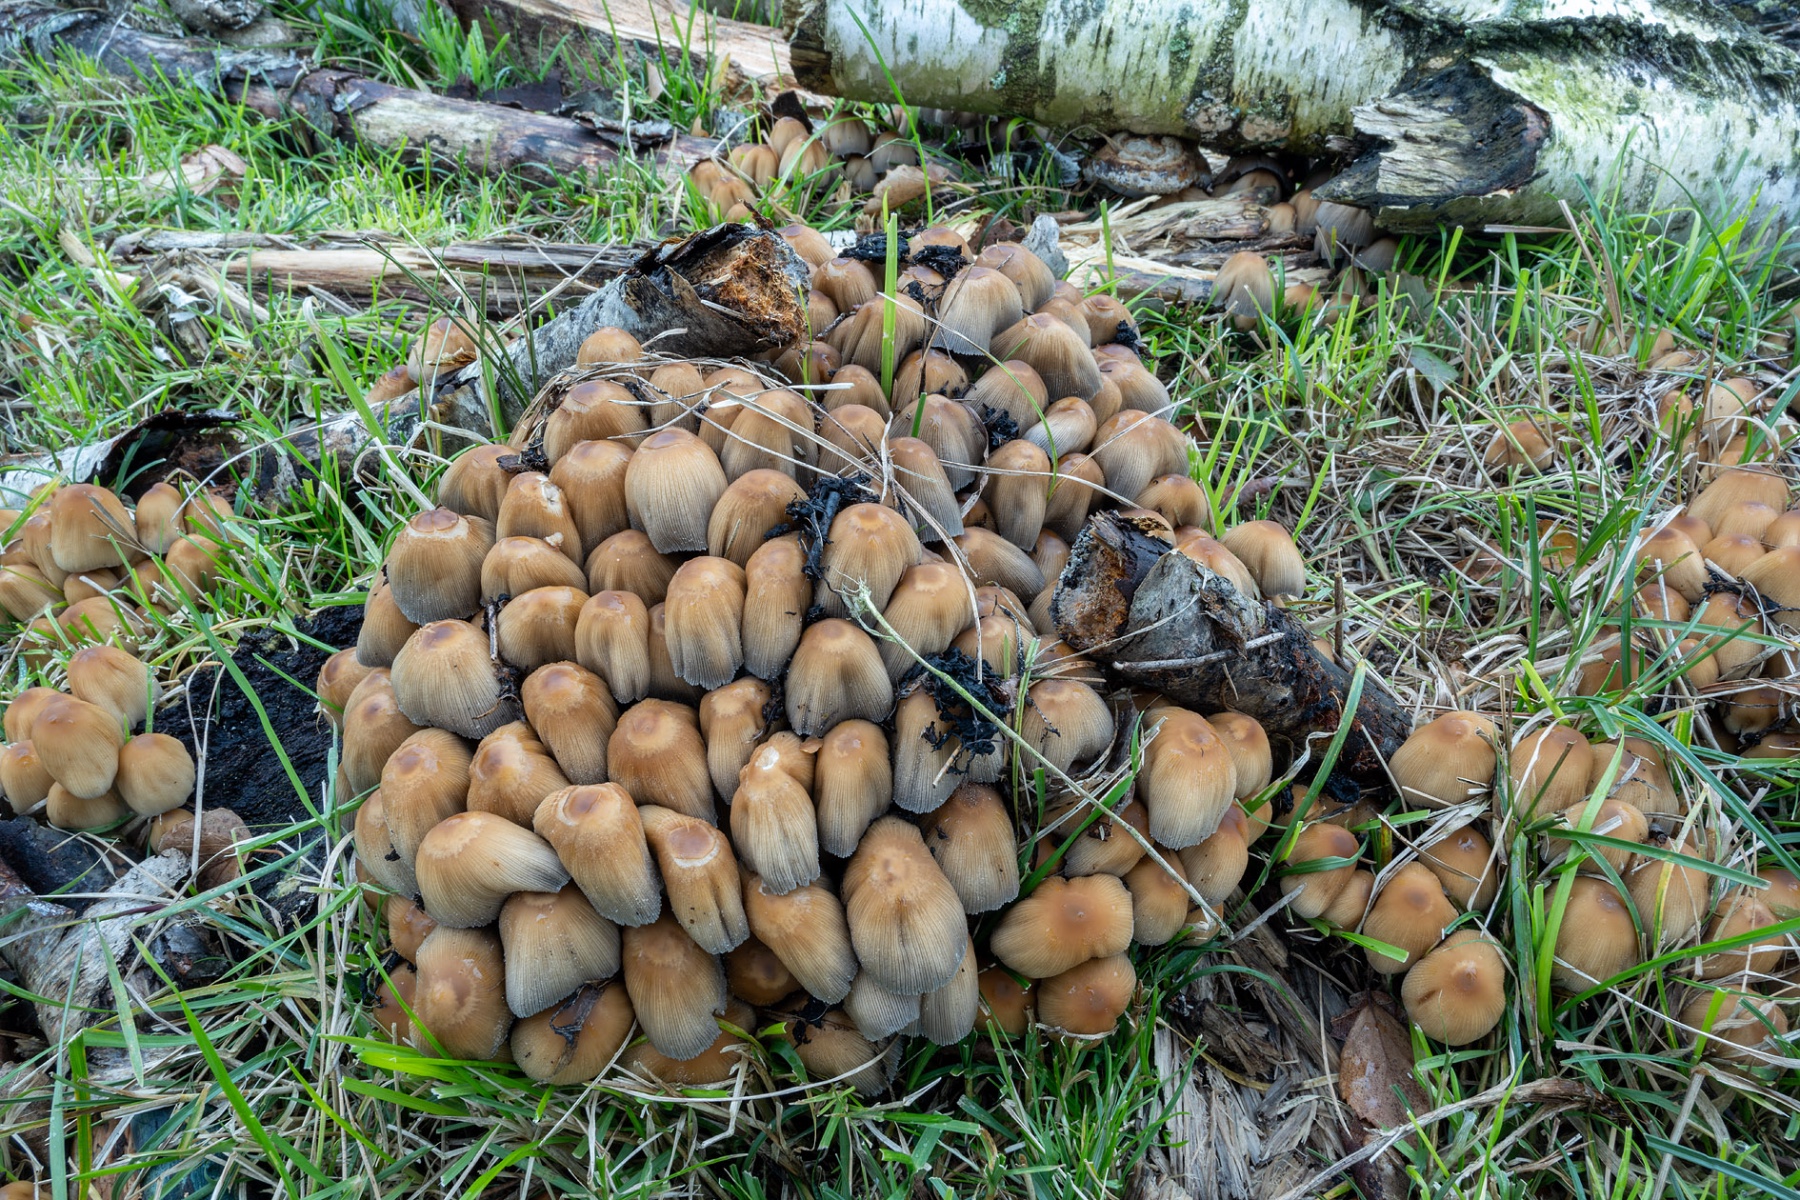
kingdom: Fungi
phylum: Basidiomycota
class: Agaricomycetes
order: Agaricales
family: Psathyrellaceae
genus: Coprinellus
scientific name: Coprinellus micaceus
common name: glimmer-blækhat
